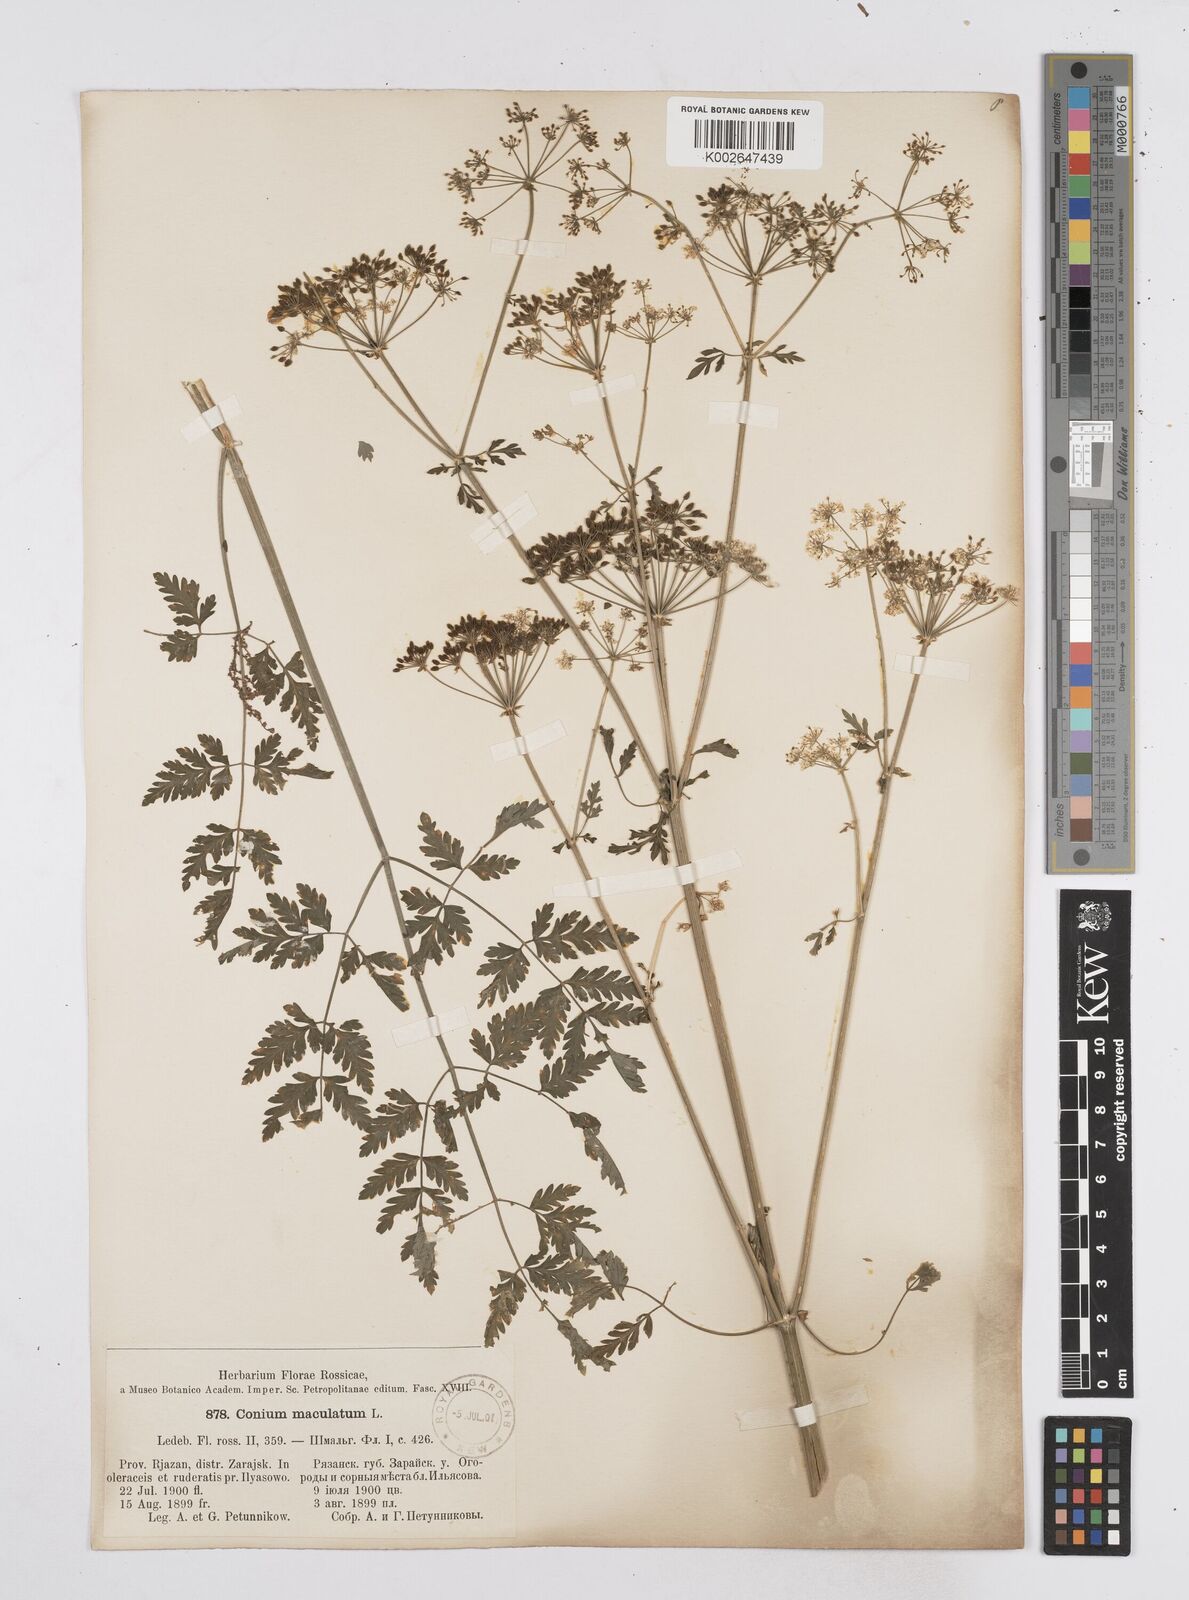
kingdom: Plantae
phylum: Tracheophyta
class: Magnoliopsida
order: Apiales
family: Apiaceae
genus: Conium
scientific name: Conium maculatum
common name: Hemlock
